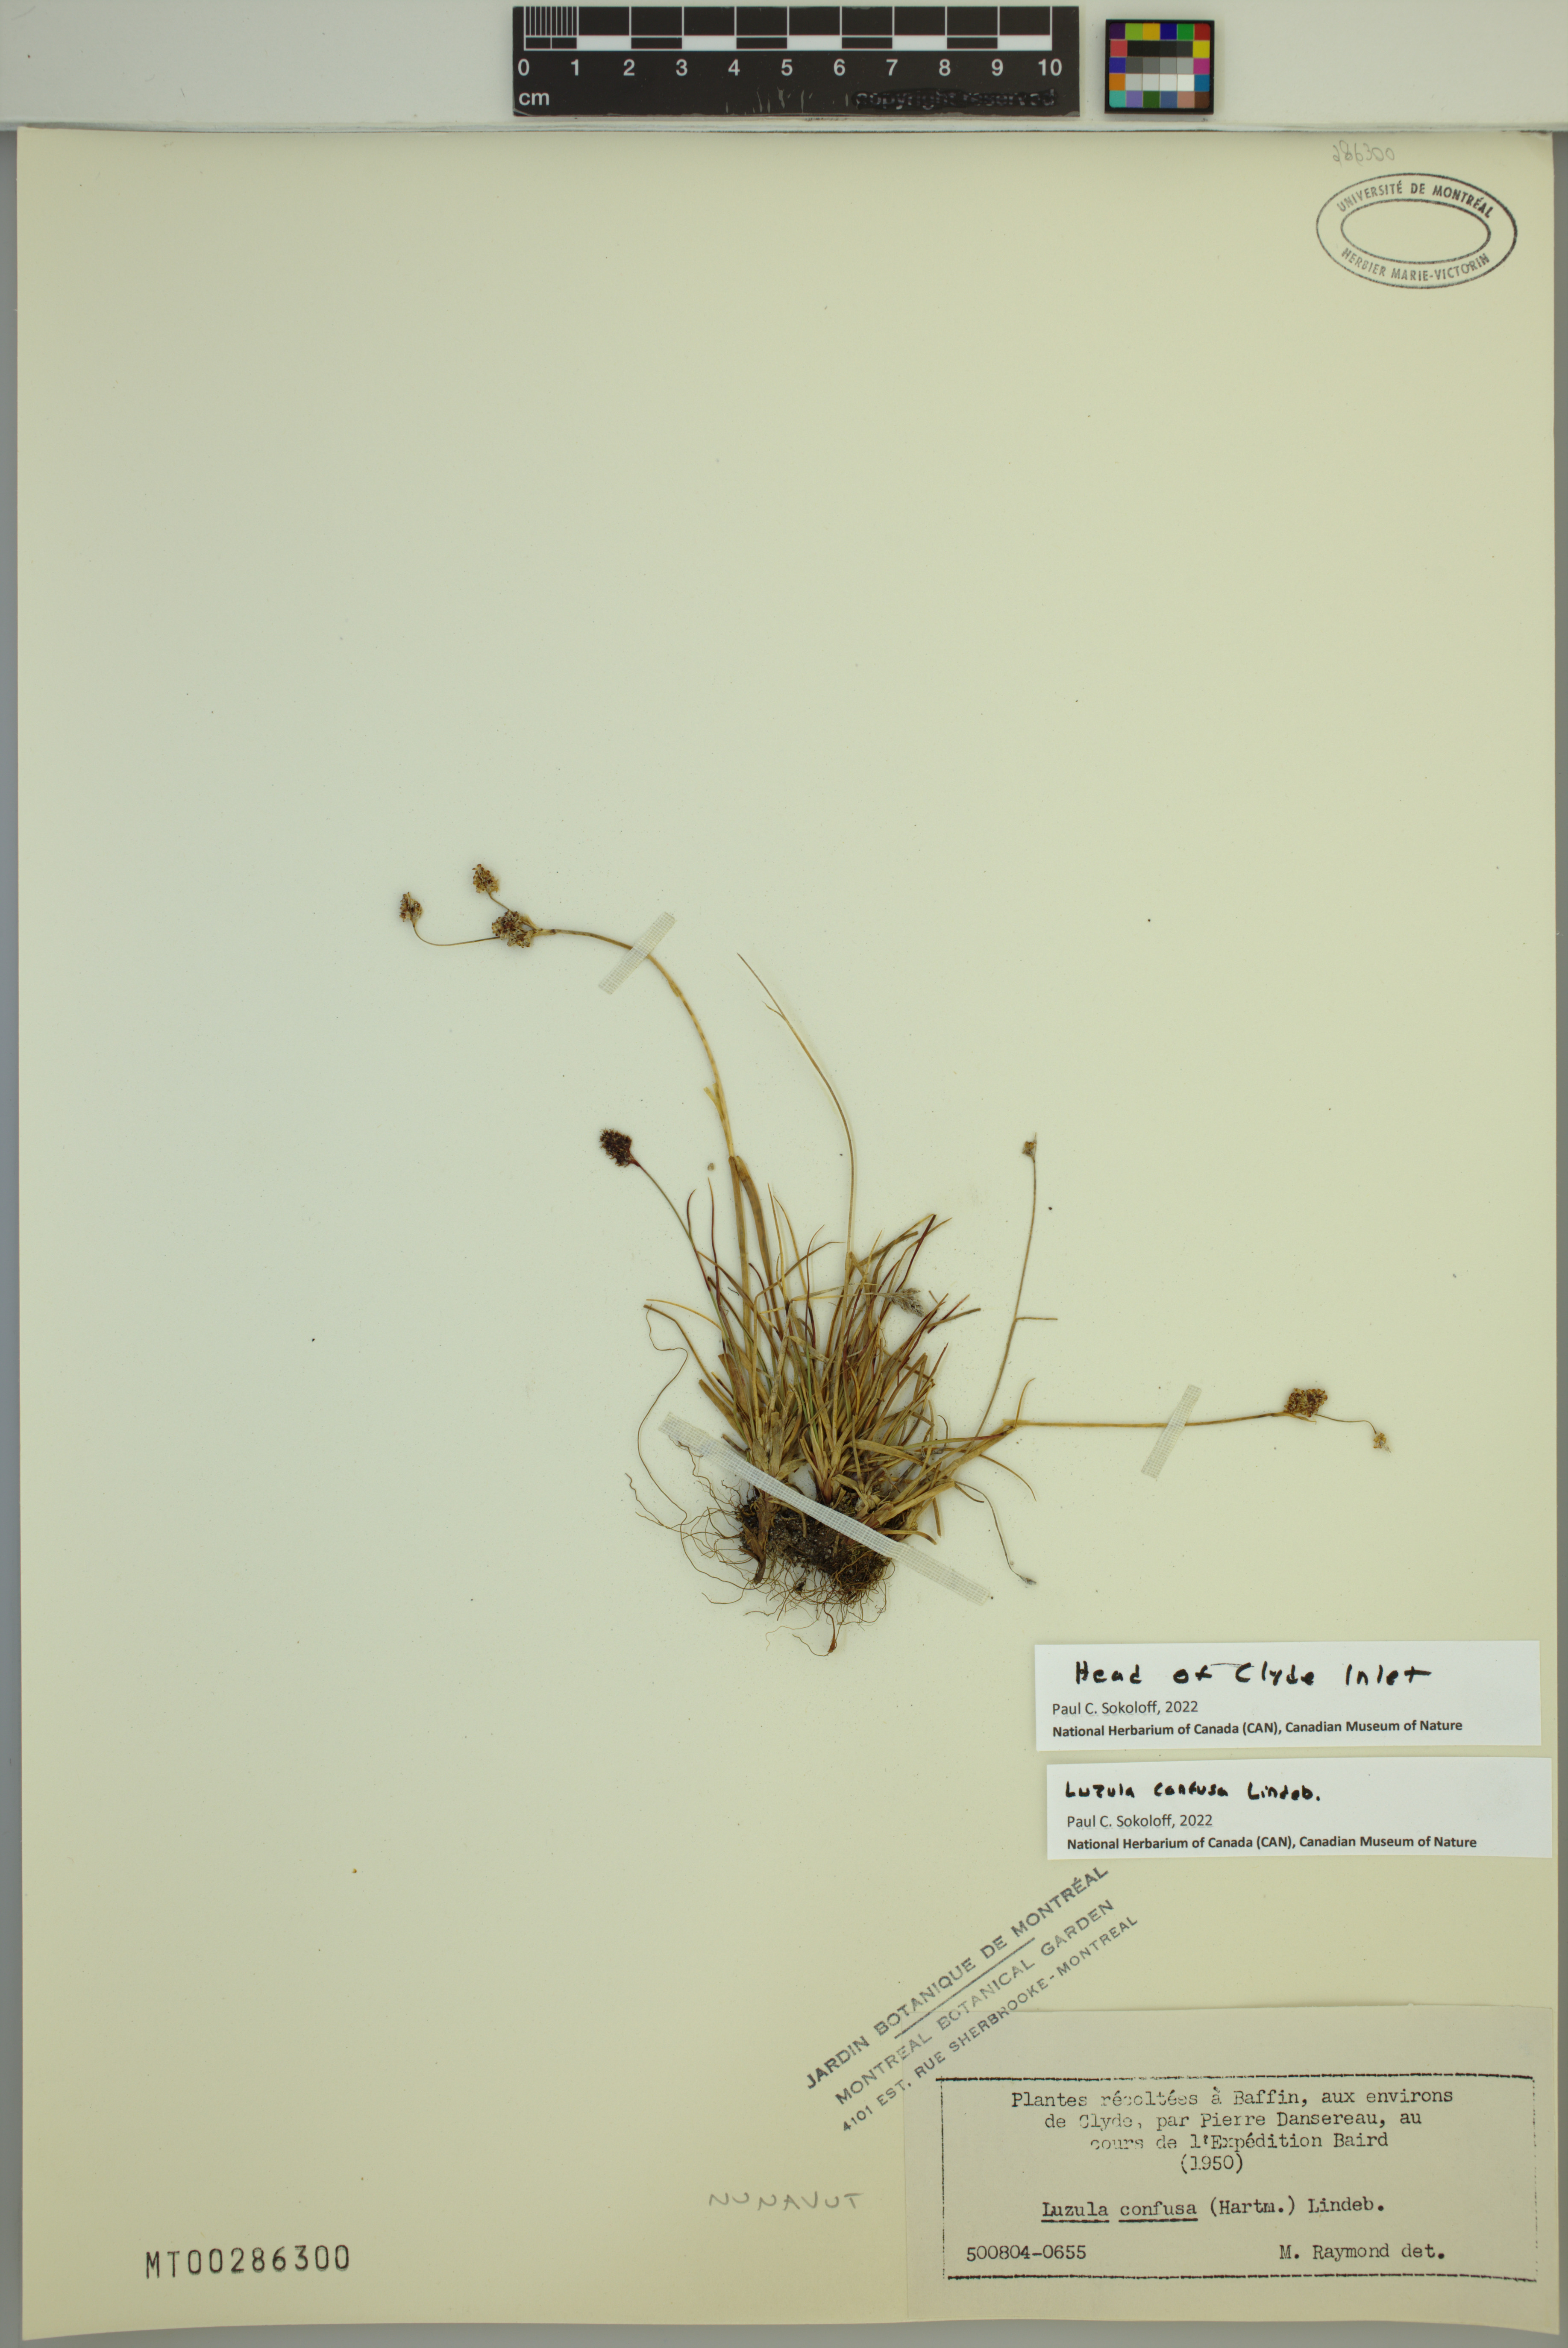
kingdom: Plantae
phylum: Tracheophyta
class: Liliopsida
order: Poales
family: Juncaceae
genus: Luzula
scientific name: Luzula confusa
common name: Northern wood rush
